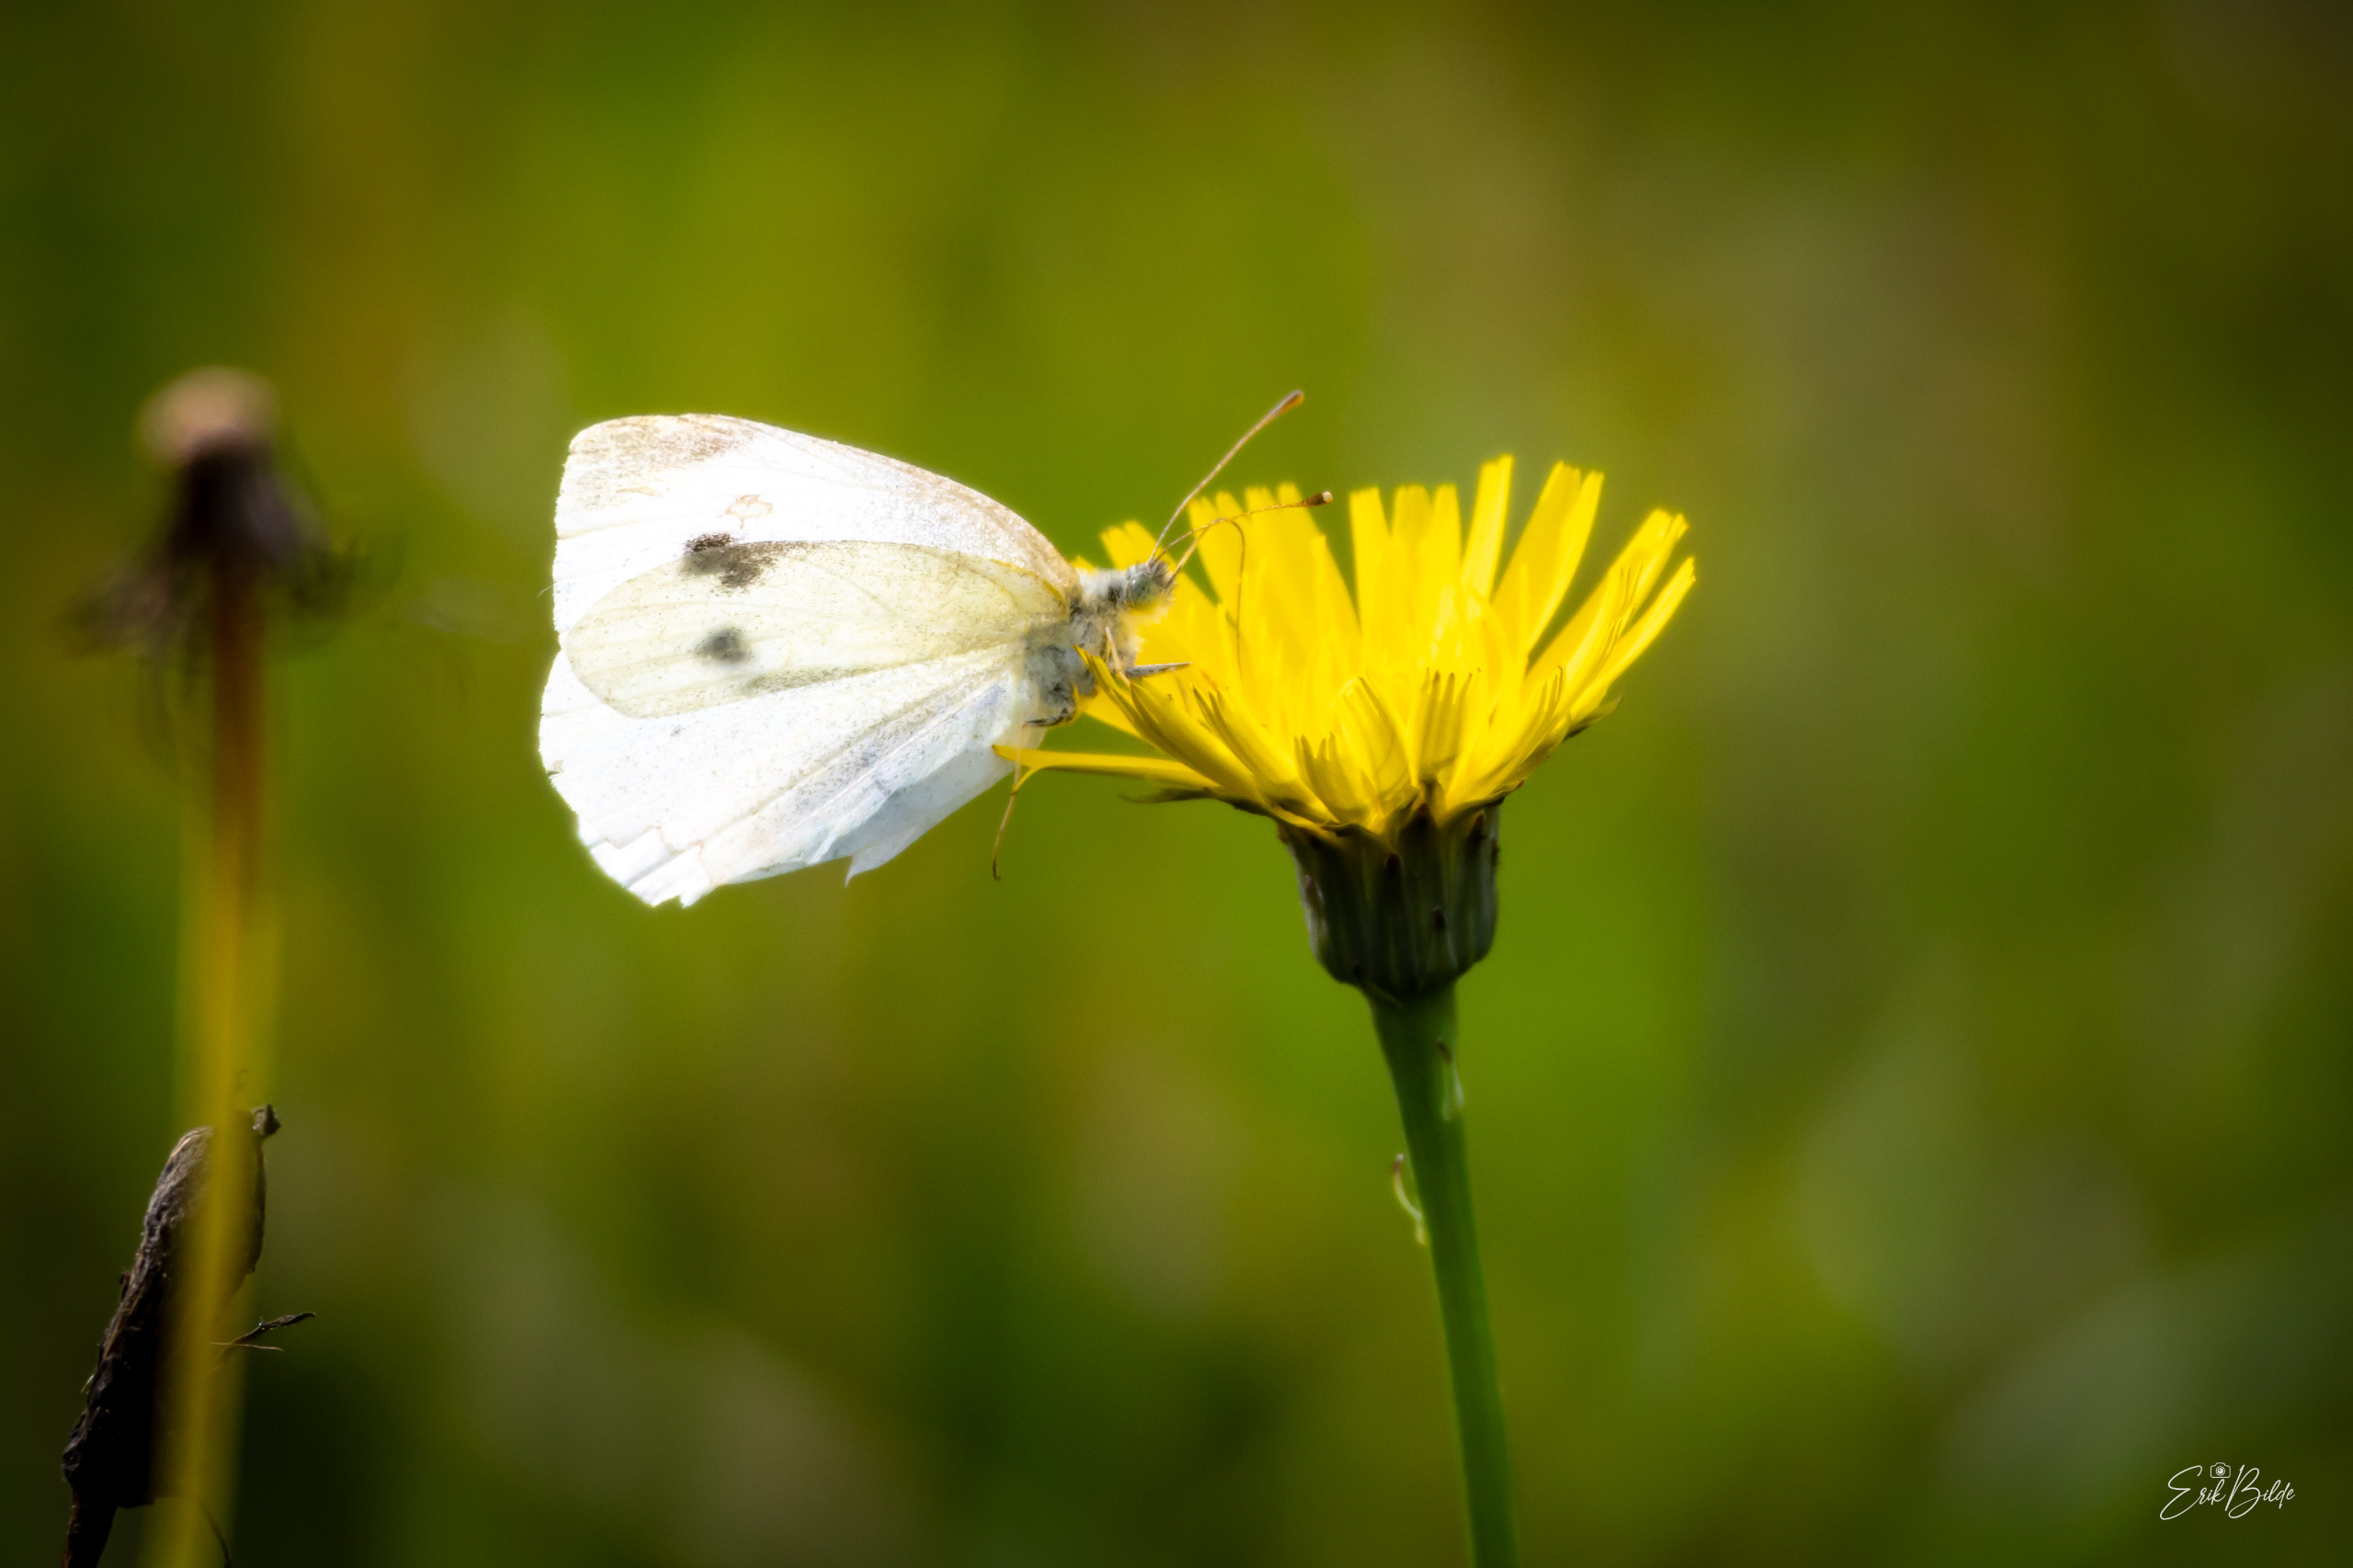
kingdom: Animalia
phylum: Arthropoda
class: Insecta
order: Lepidoptera
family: Pieridae
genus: Pieris
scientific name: Pieris rapae
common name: Lille kålsommerfugl
